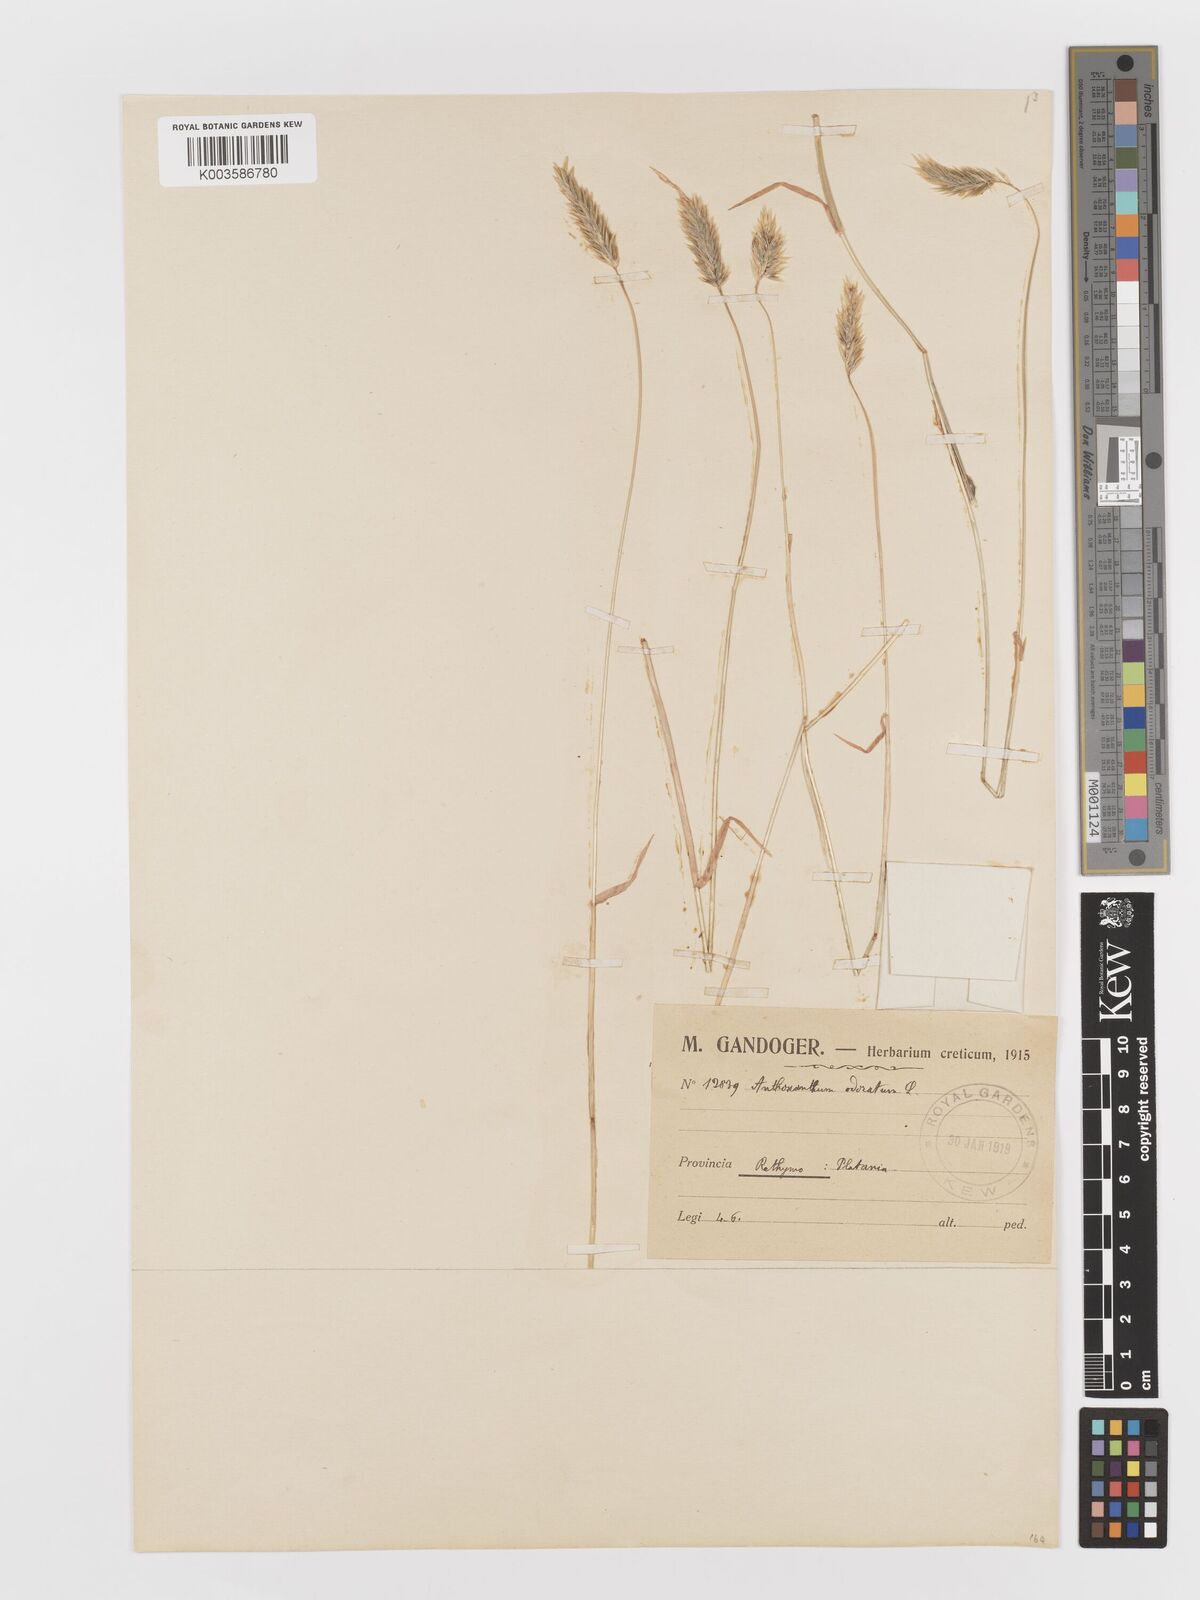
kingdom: Plantae
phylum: Tracheophyta
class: Liliopsida
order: Poales
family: Poaceae
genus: Anthoxanthum
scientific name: Anthoxanthum odoratum
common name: Sweet vernalgrass
